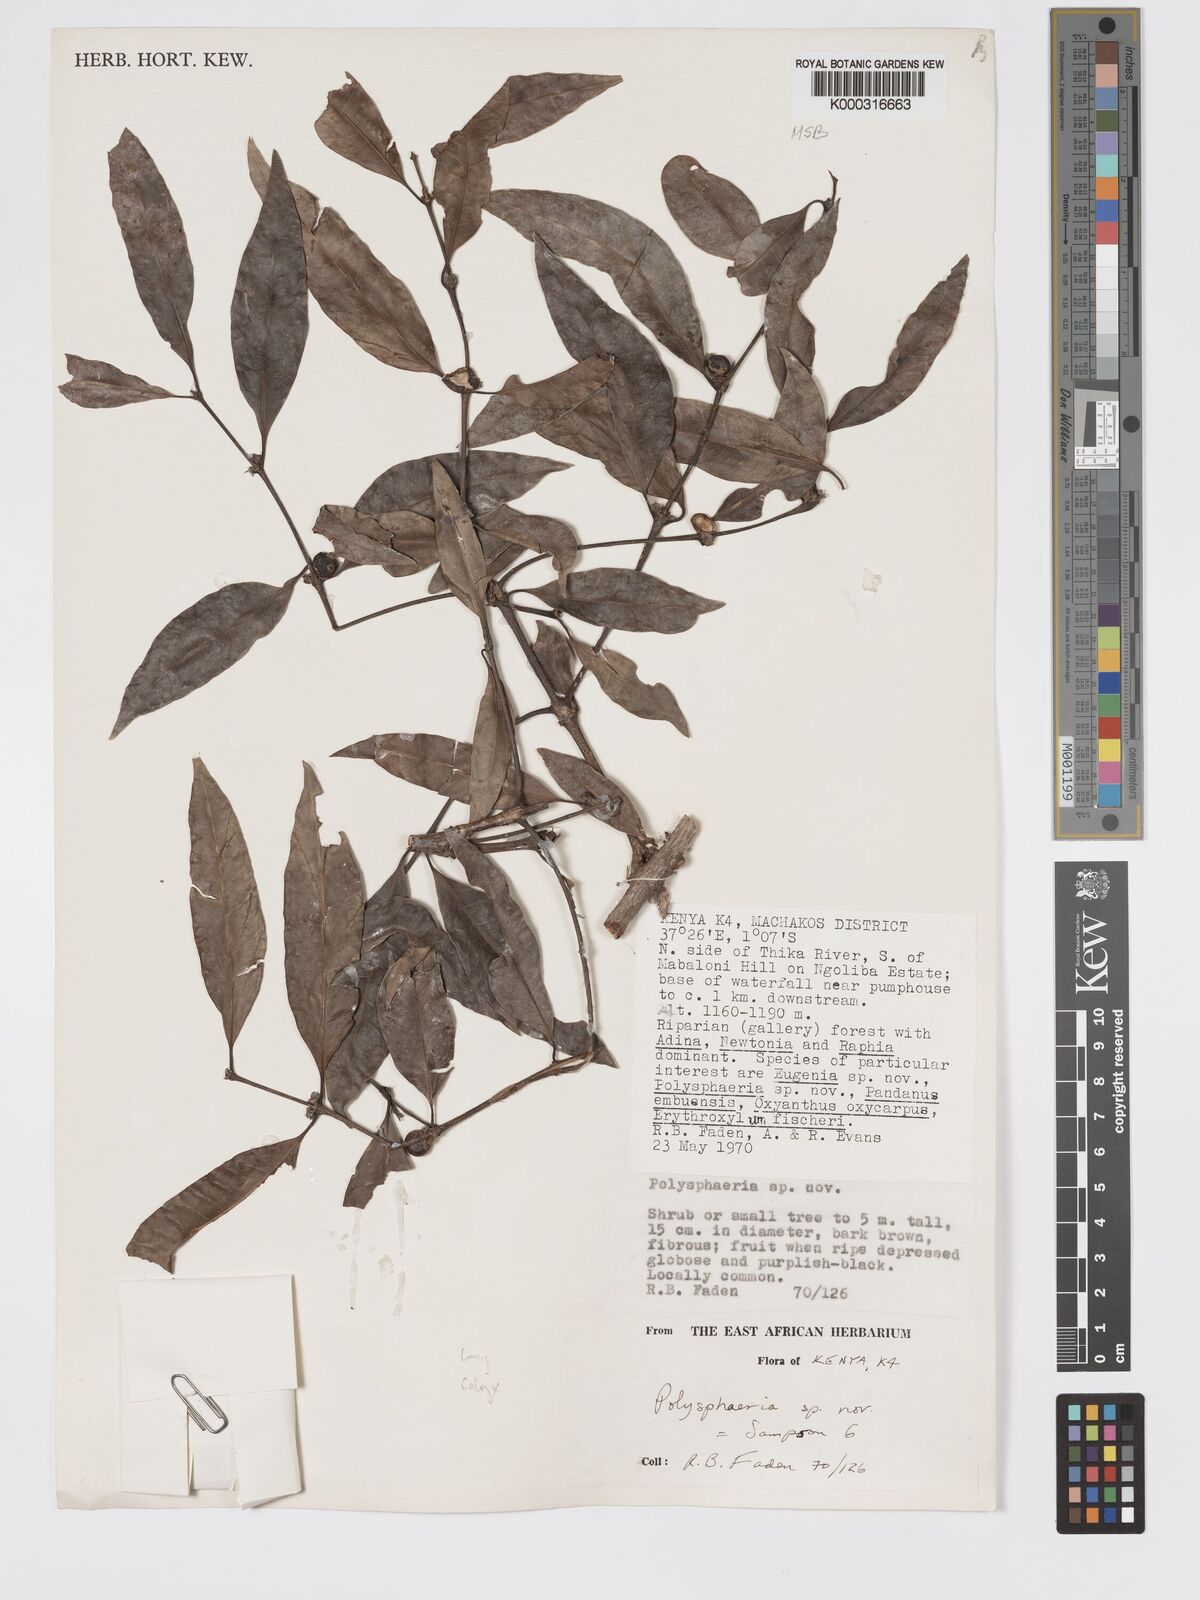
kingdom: Plantae
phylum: Tracheophyta
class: Magnoliopsida
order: Gentianales
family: Rubiaceae
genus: Polysphaeria
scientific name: Polysphaeria cleistocalyx
